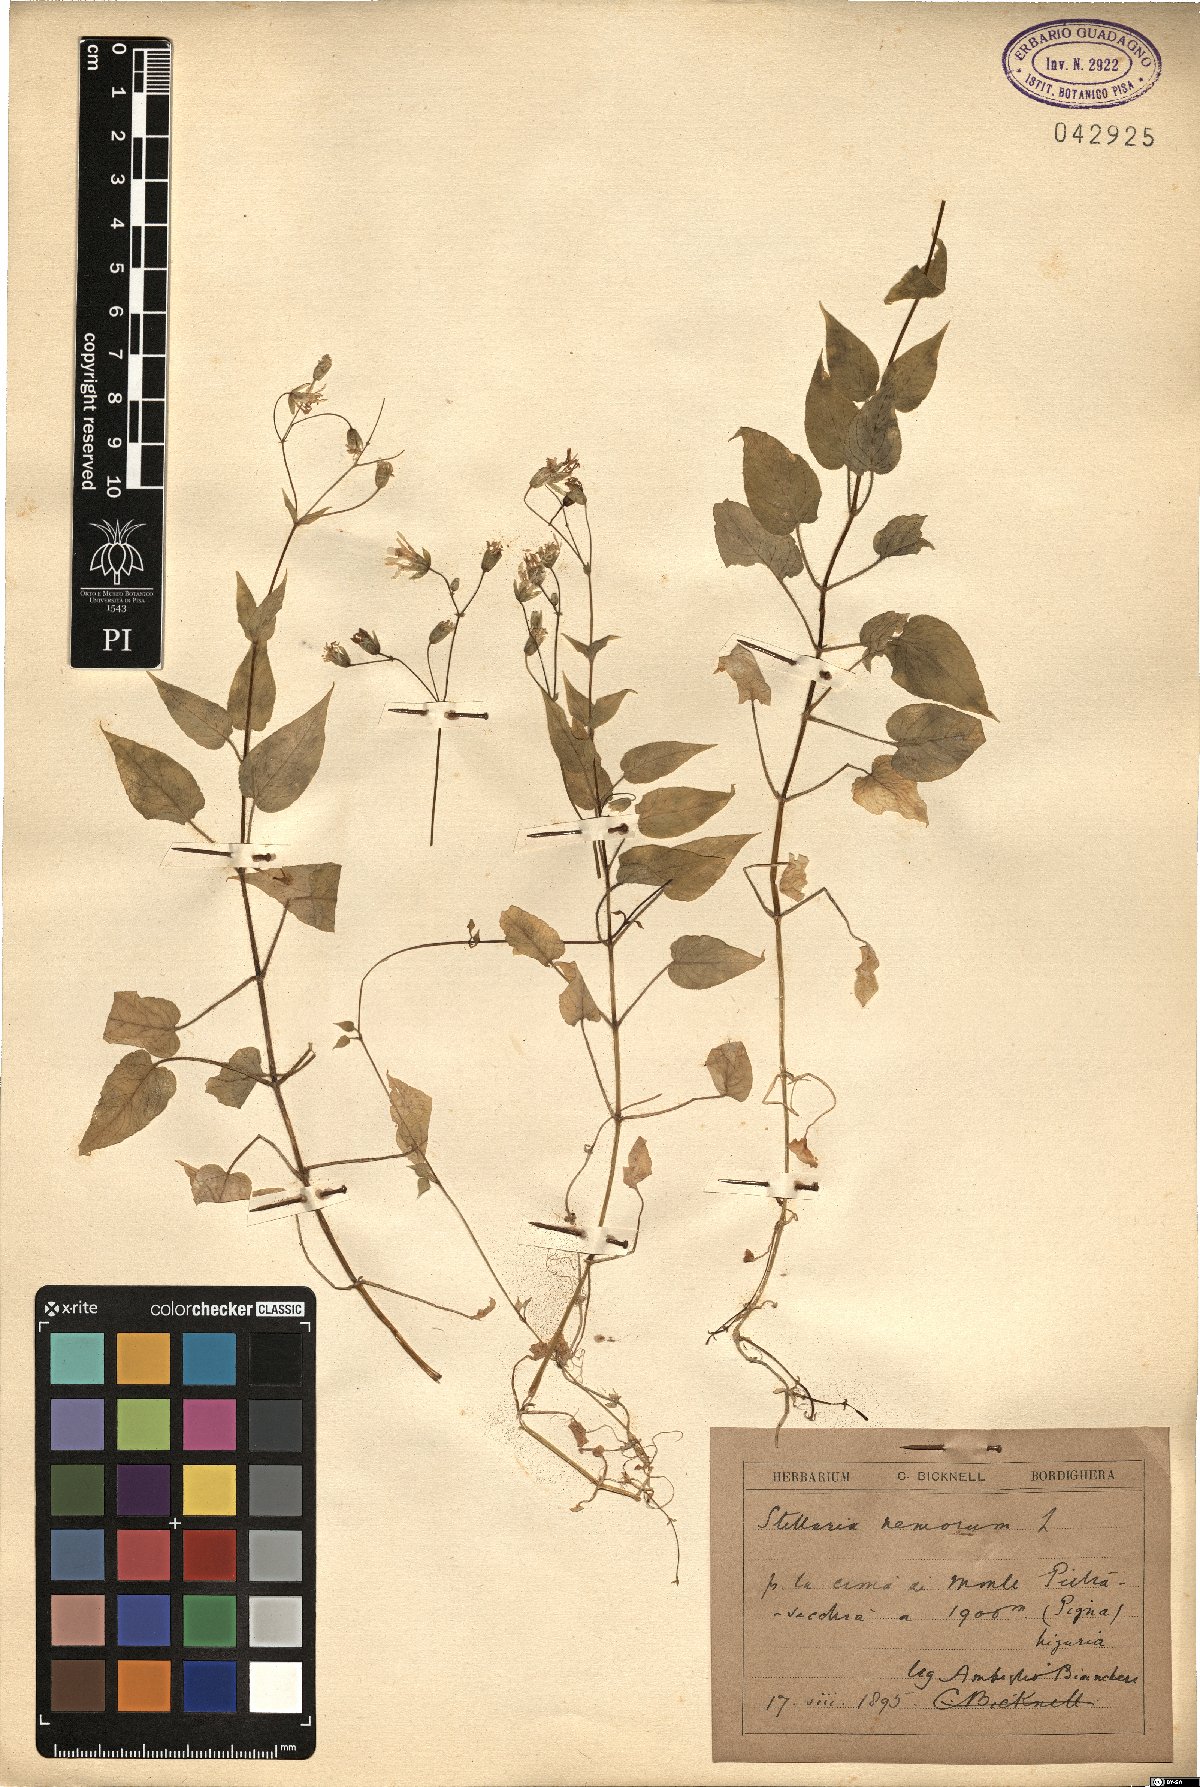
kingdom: Plantae
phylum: Tracheophyta
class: Magnoliopsida
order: Caryophyllales
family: Caryophyllaceae
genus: Stellaria
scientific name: Stellaria nemorum
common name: Wood stitchwort
